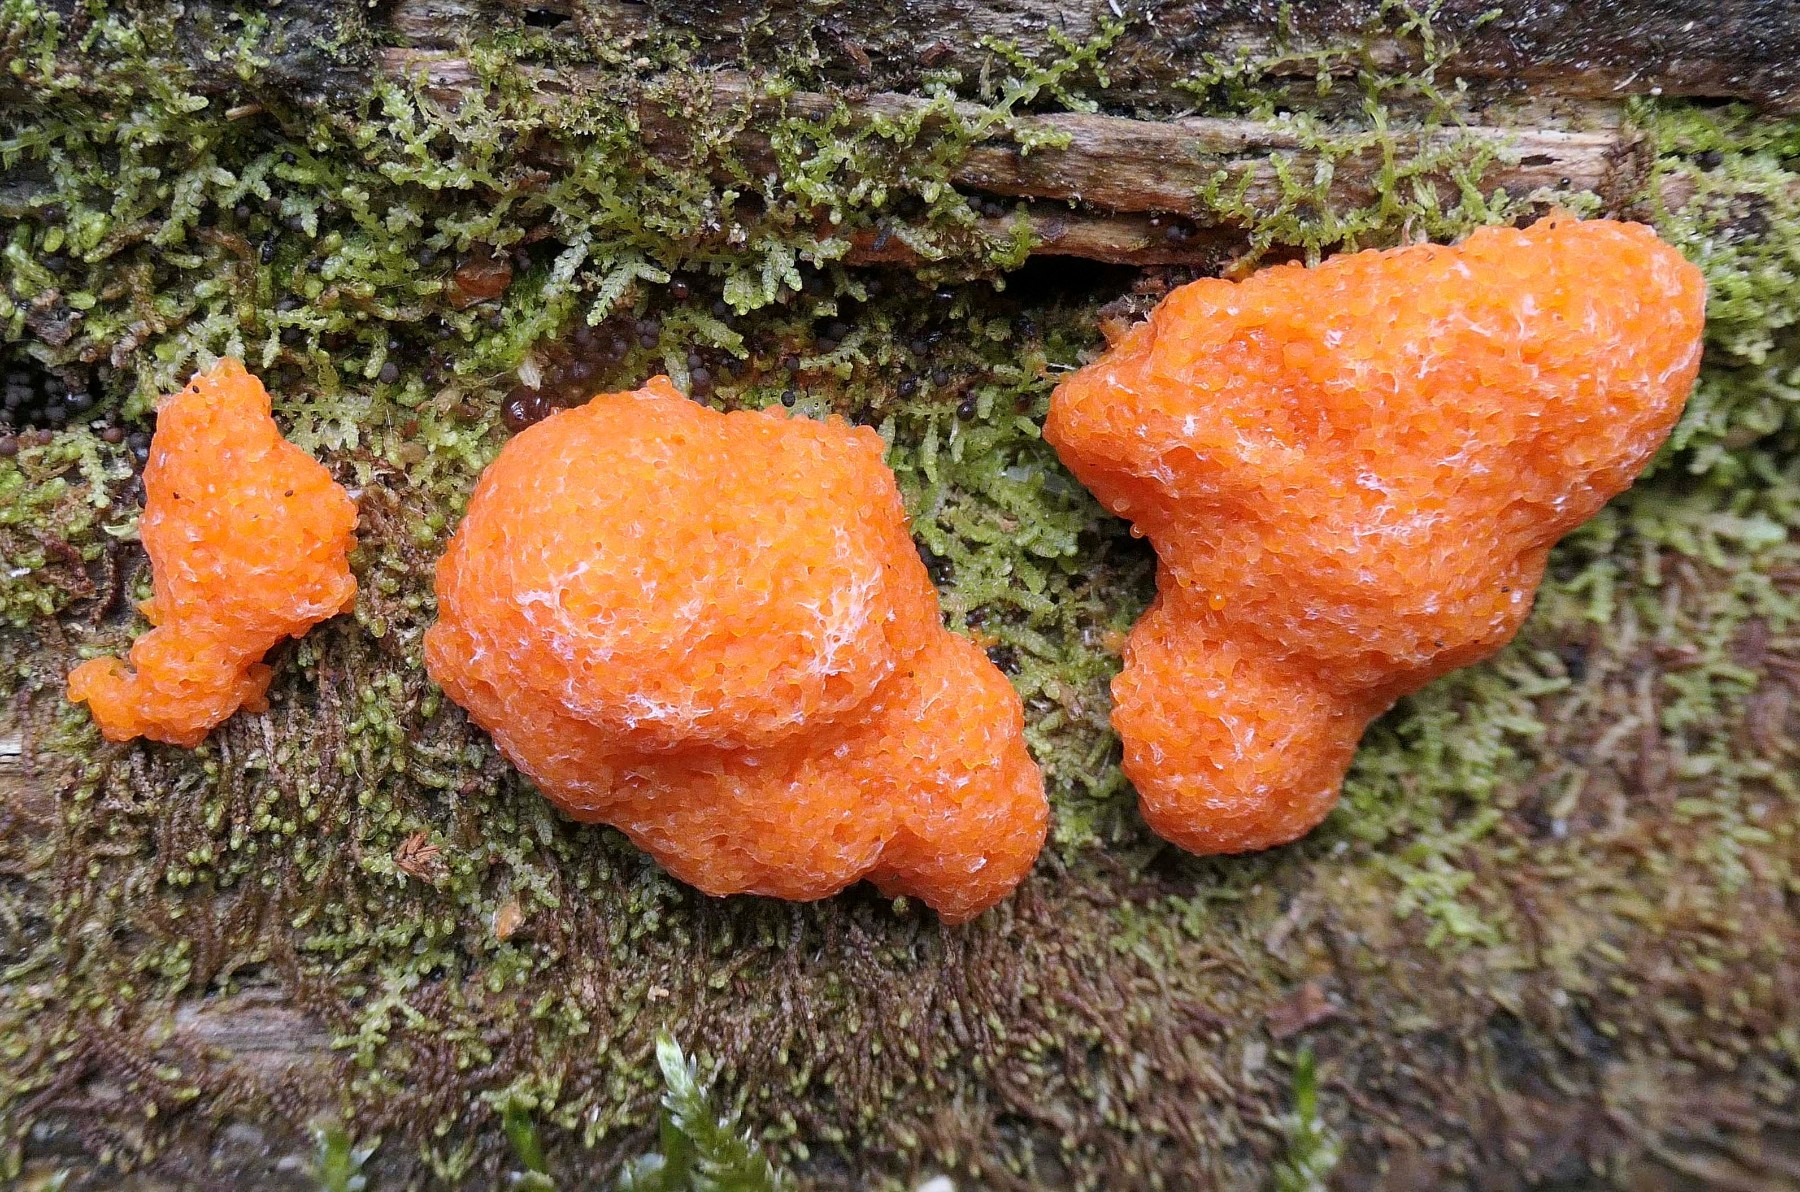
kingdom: Protozoa
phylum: Mycetozoa
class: Myxomycetes
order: Cribrariales
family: Tubiferaceae
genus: Tubifera
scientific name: Tubifera ferruginosa
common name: kanel-støvrør
